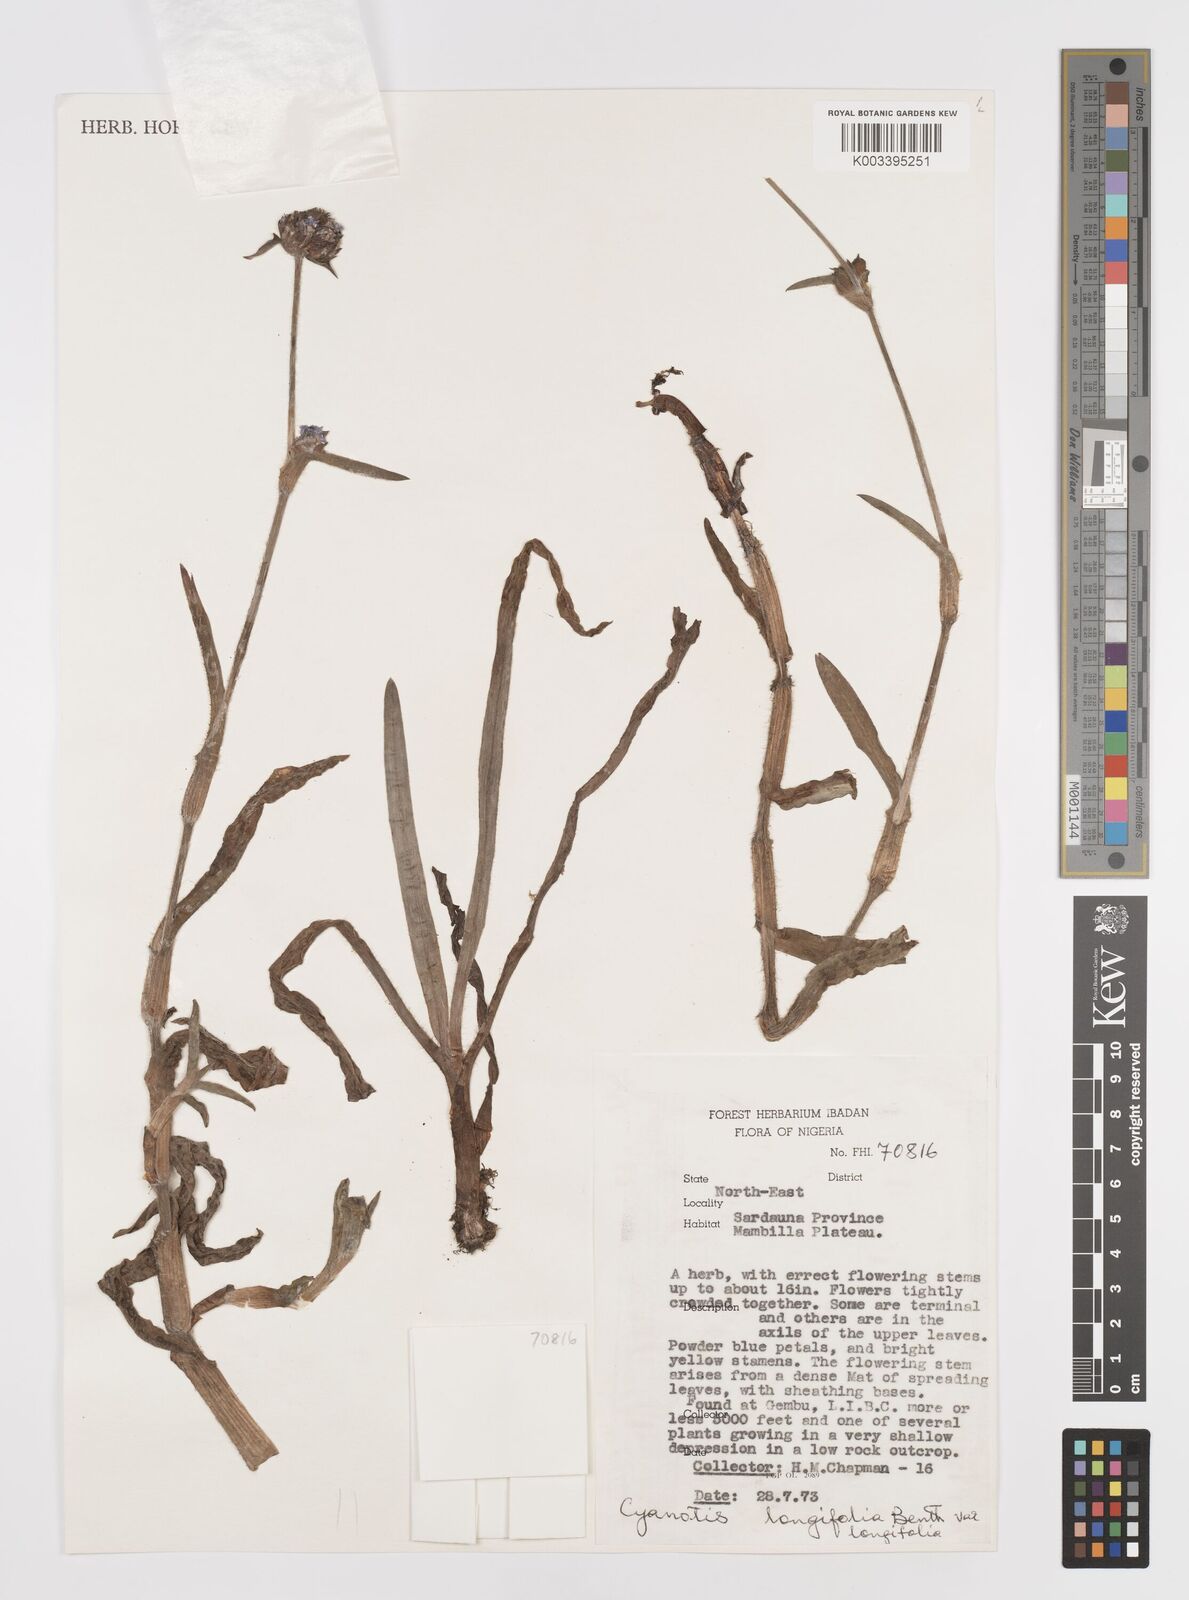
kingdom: Plantae
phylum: Tracheophyta
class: Liliopsida
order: Commelinales
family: Commelinaceae
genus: Cyanotis
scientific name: Cyanotis
